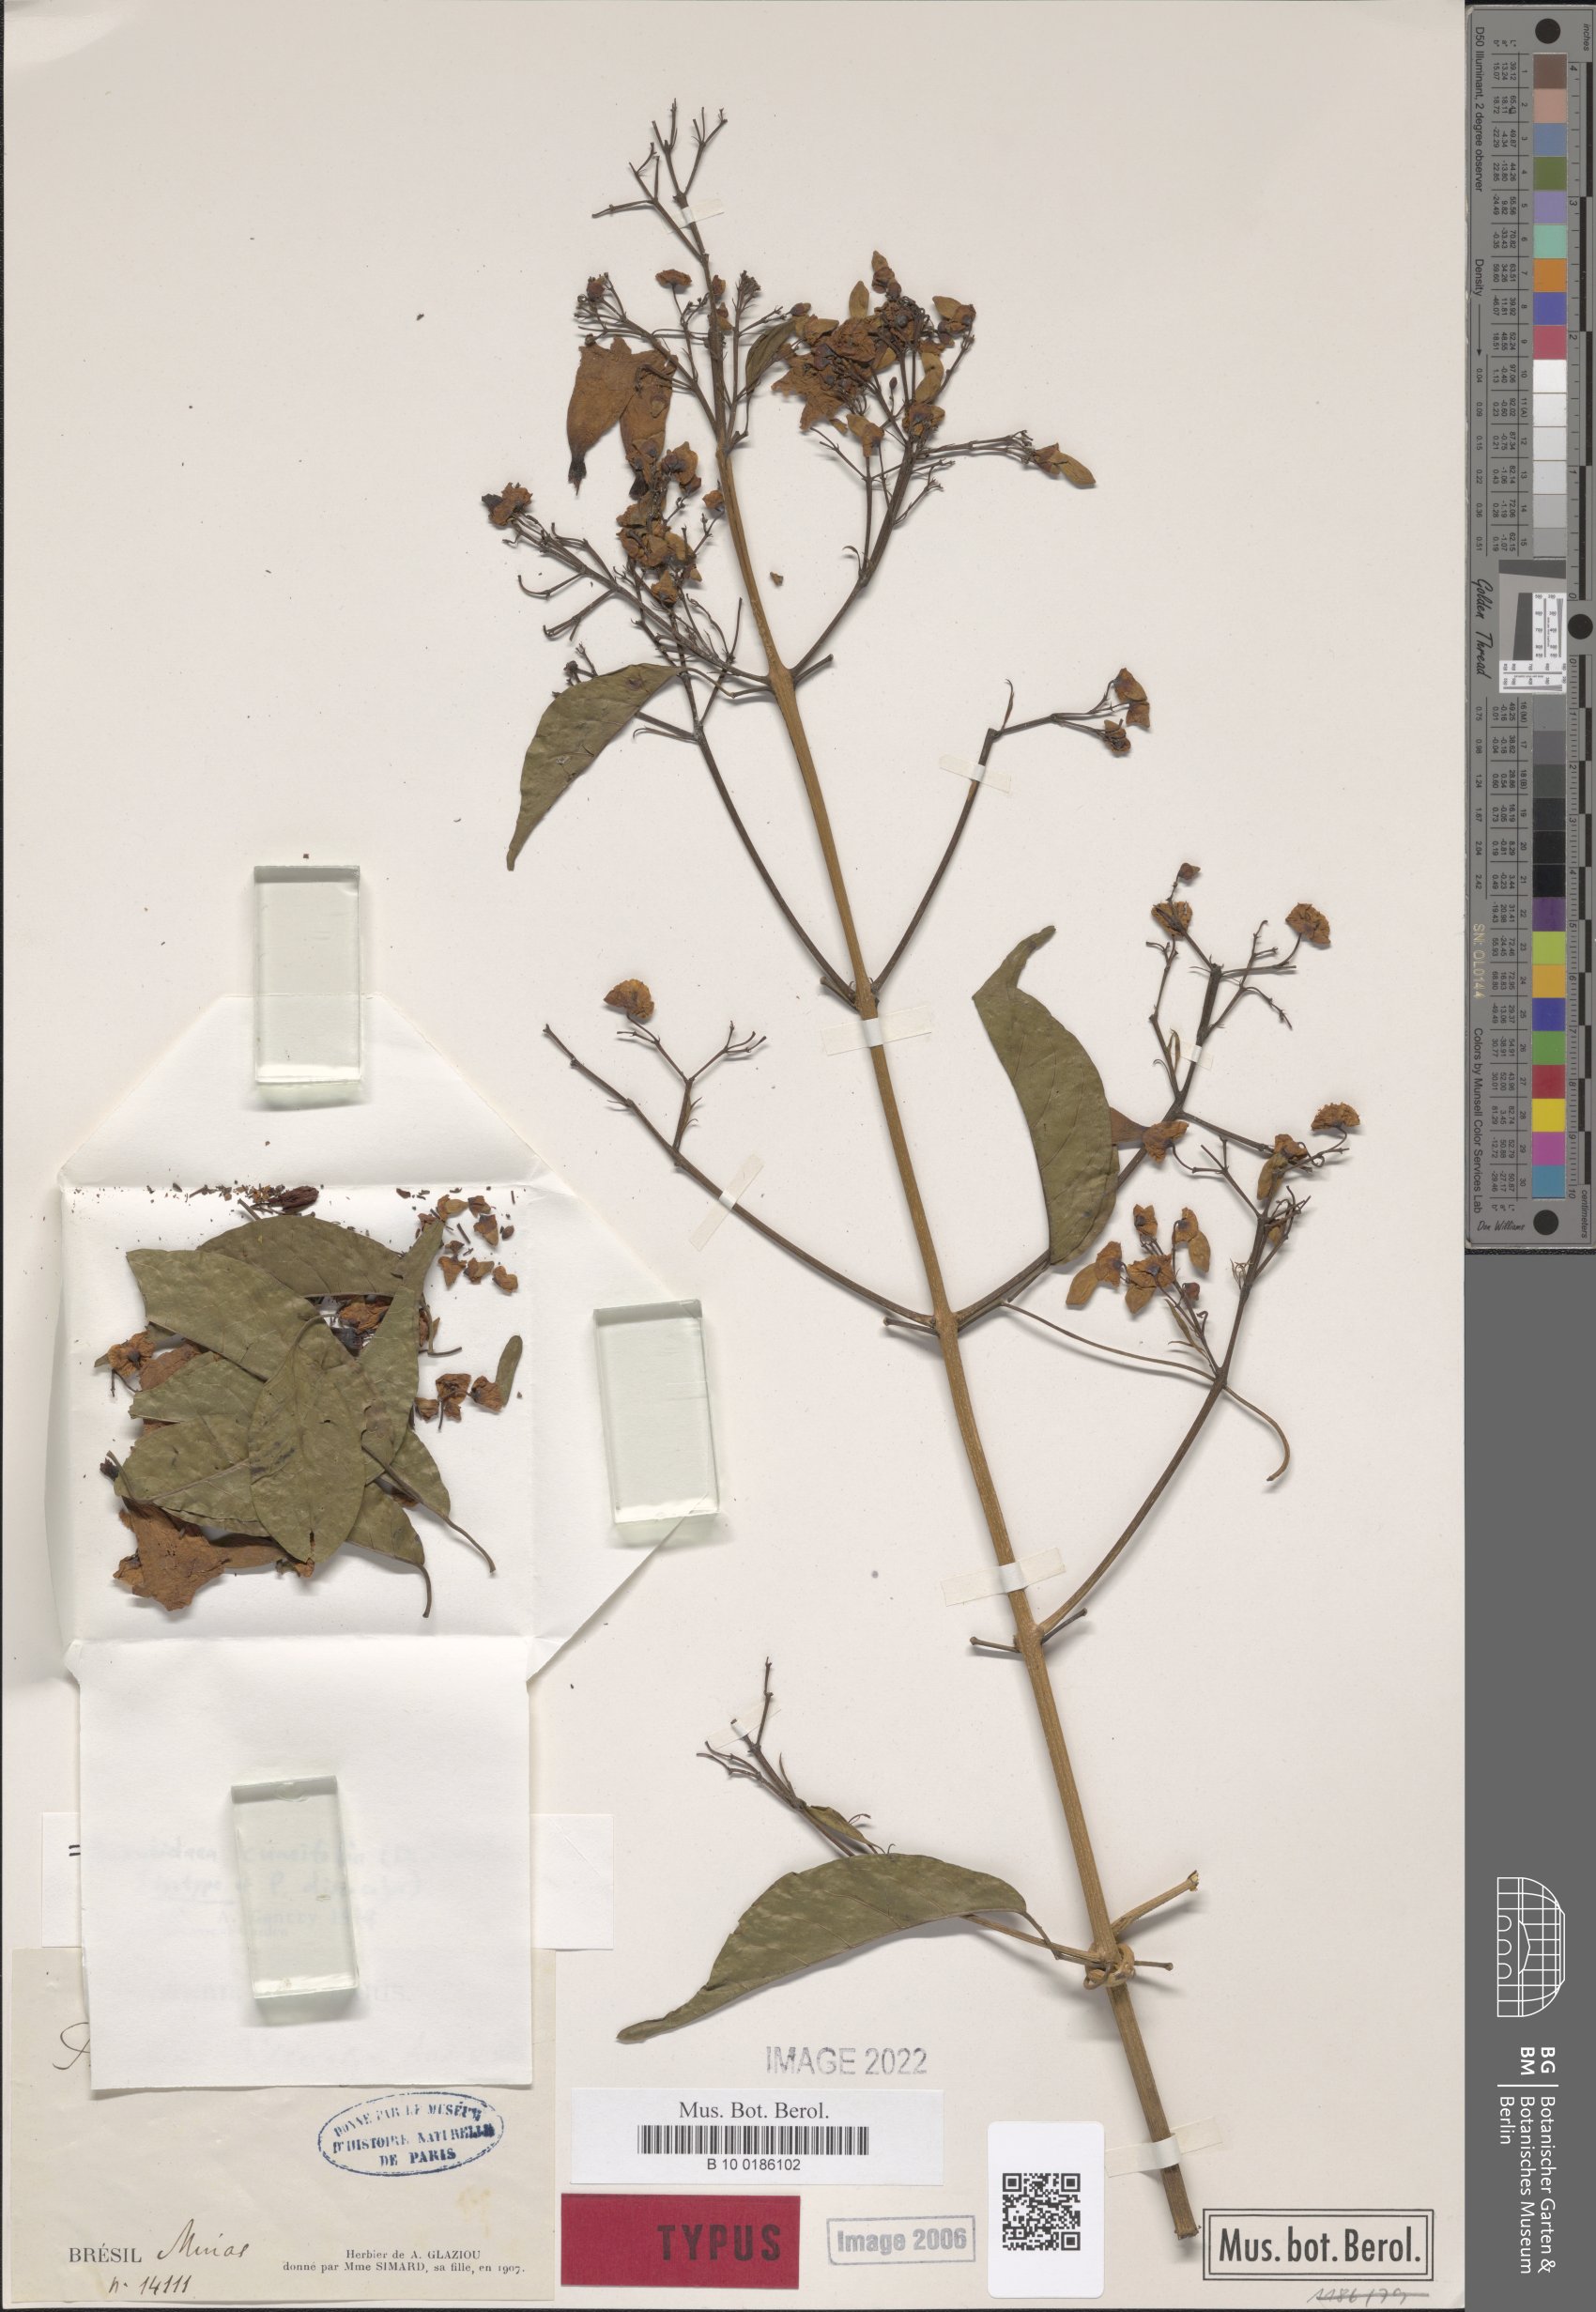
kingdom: Plantae
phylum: Tracheophyta
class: Magnoliopsida
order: Lamiales
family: Bignoniaceae
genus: Fridericia
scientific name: Fridericia cuneifolia
